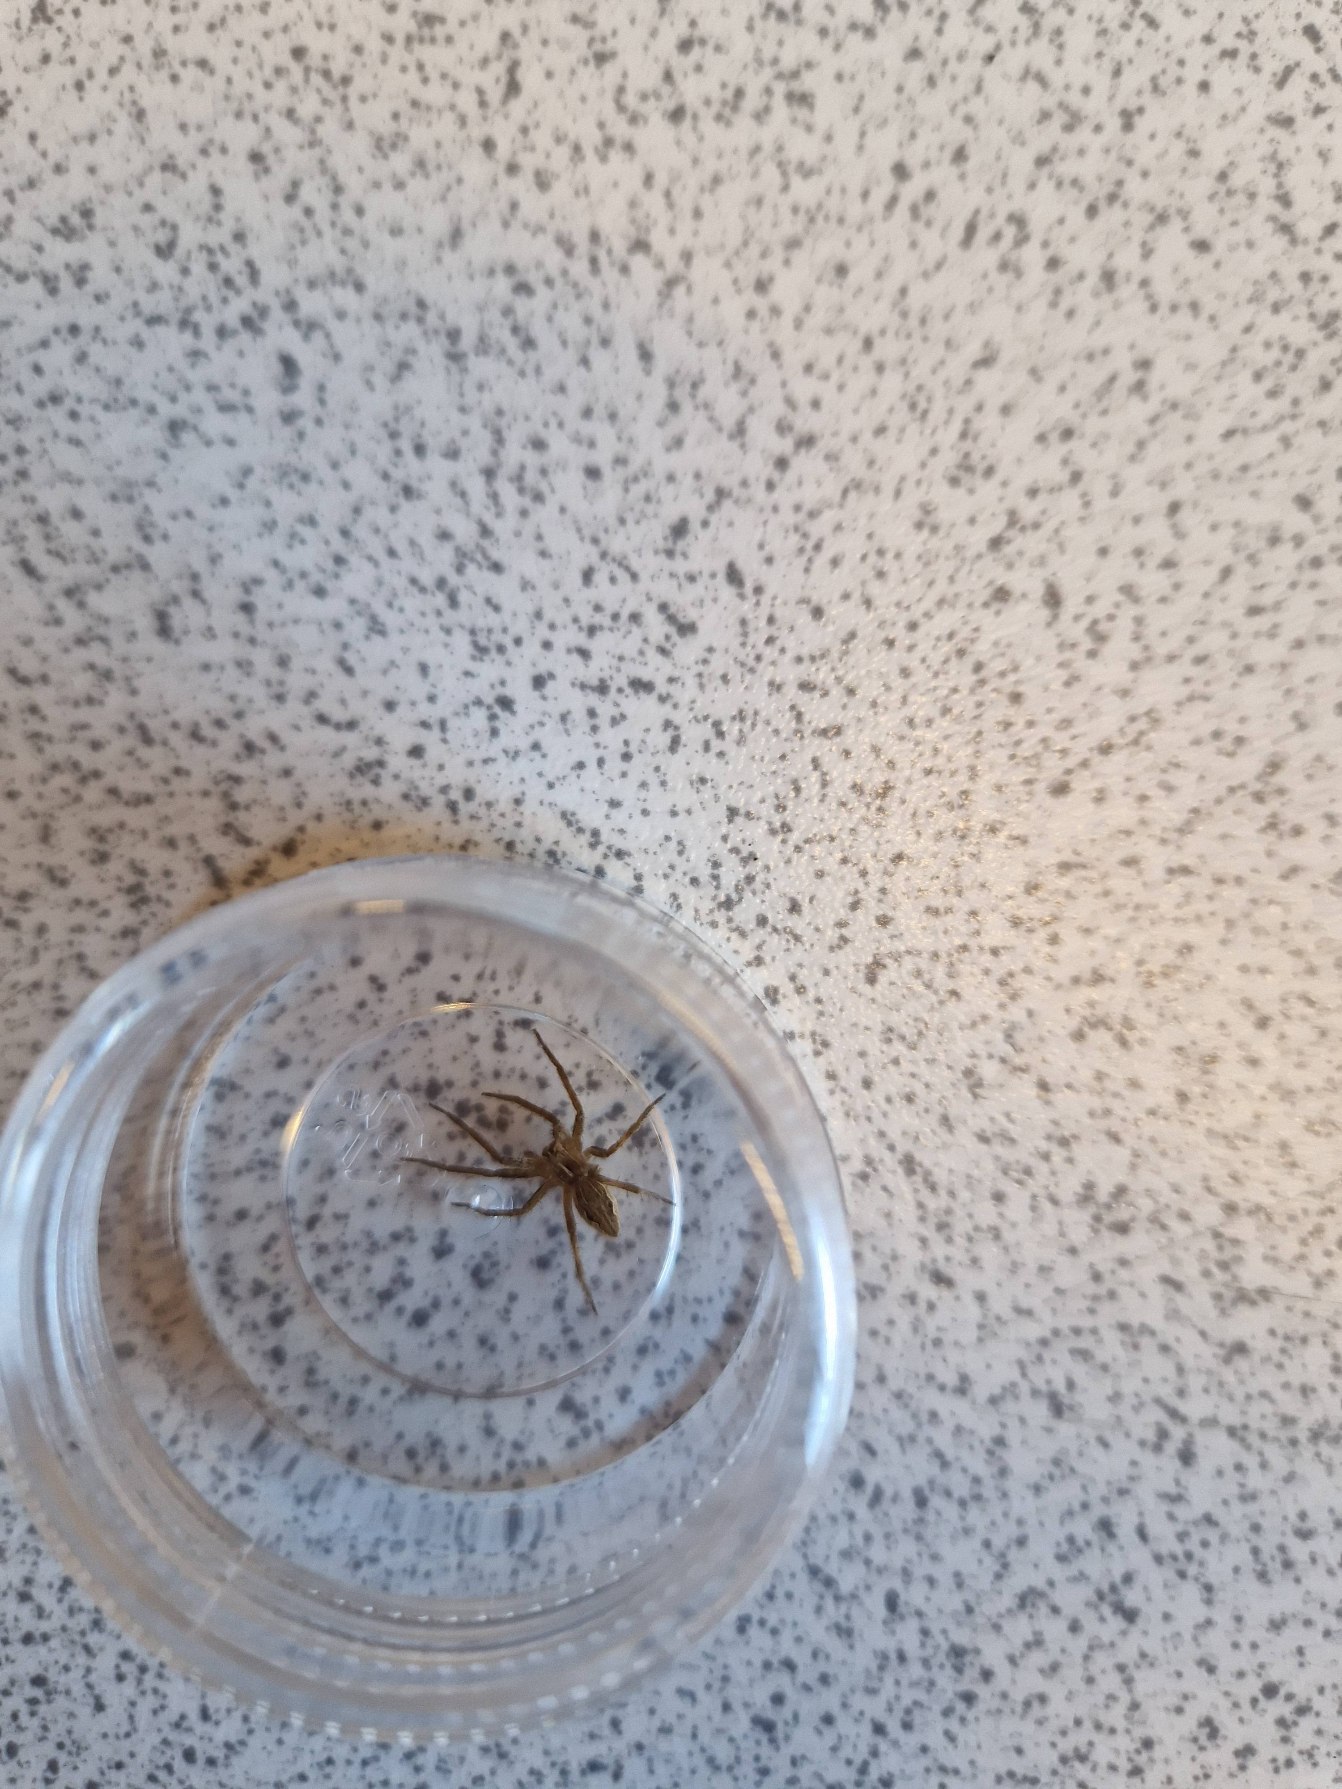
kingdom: Animalia
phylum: Arthropoda
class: Arachnida
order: Araneae
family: Pisauridae
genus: Pisaura
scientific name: Pisaura mirabilis
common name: Almindelig rovedderkop
